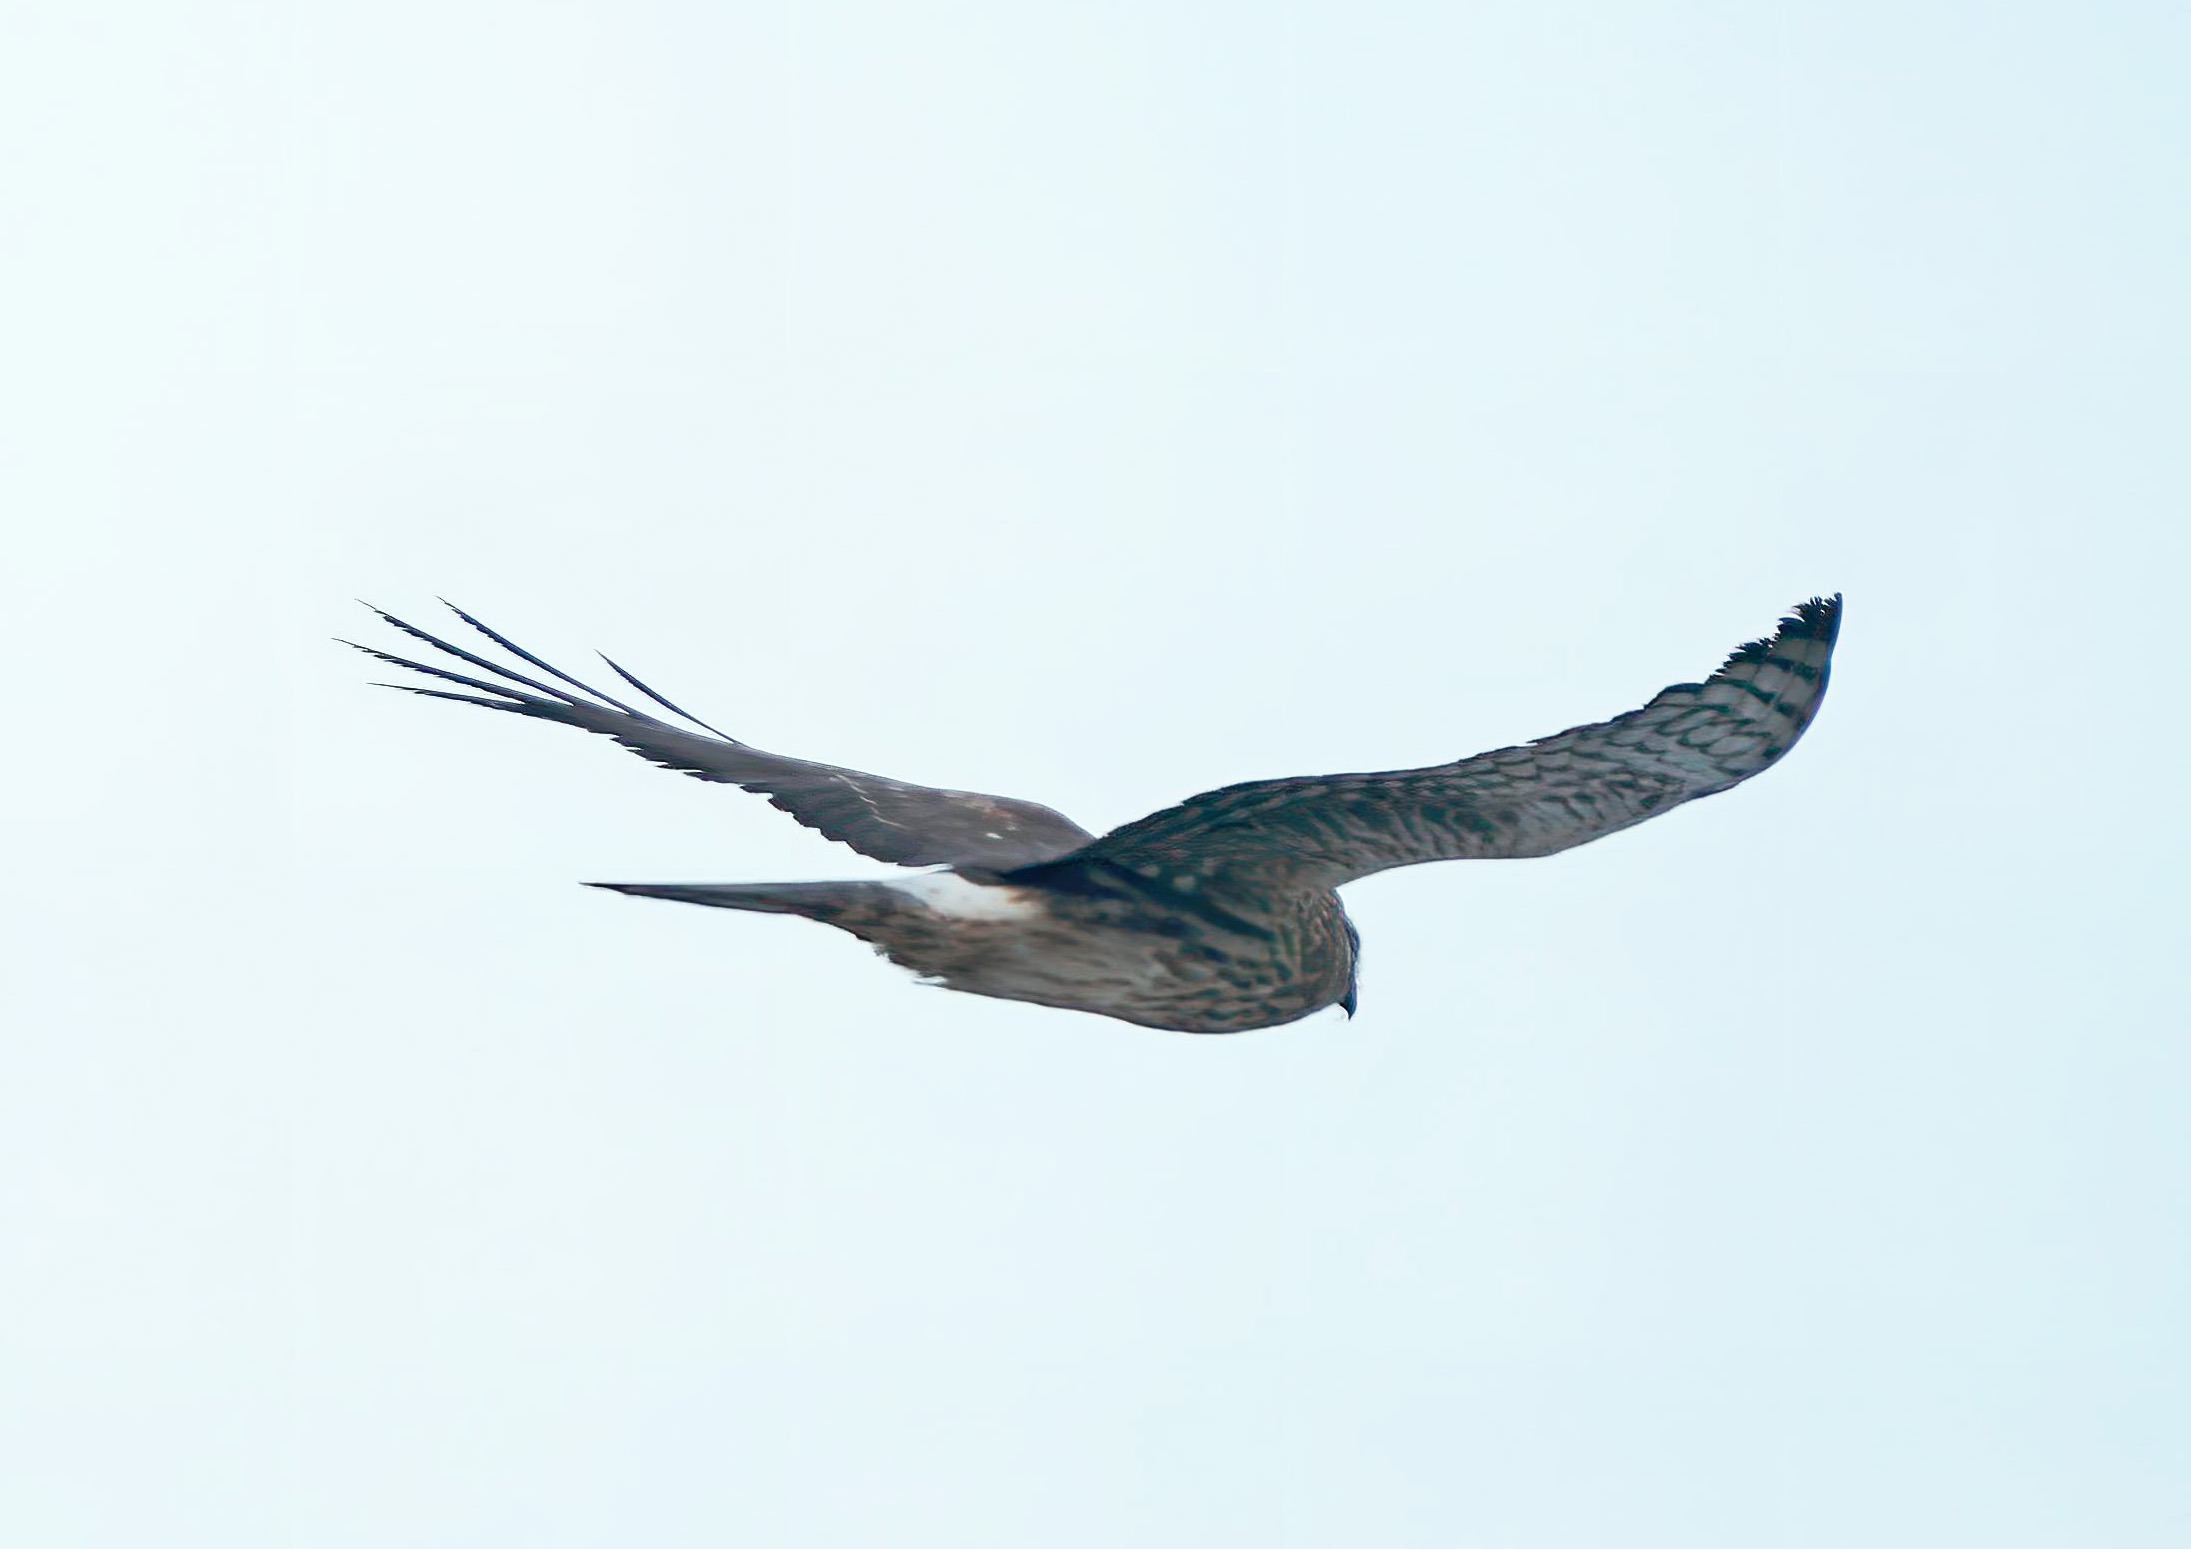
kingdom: Animalia
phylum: Chordata
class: Aves
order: Accipitriformes
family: Accipitridae
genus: Circus
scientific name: Circus cyaneus
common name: Blå kærhøg
